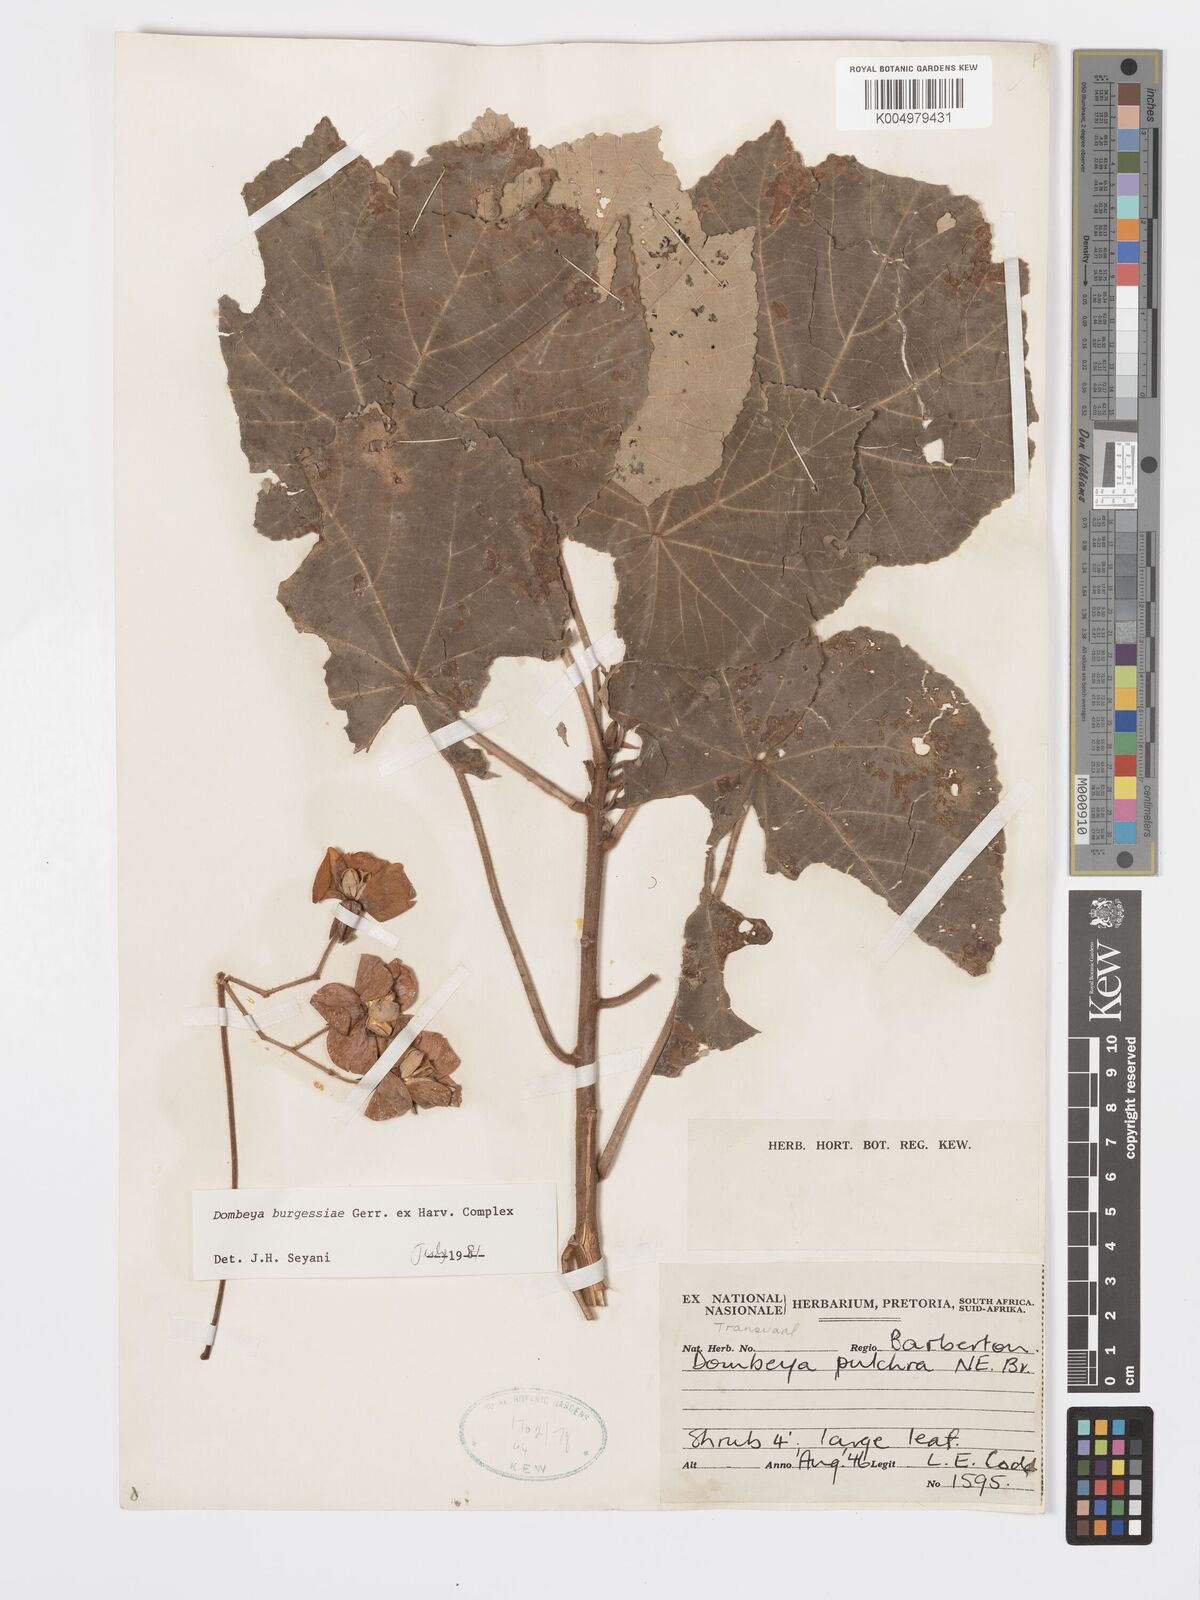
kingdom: Plantae
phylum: Tracheophyta
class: Magnoliopsida
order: Malvales
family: Malvaceae
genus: Dombeya
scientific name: Dombeya burgessiae
